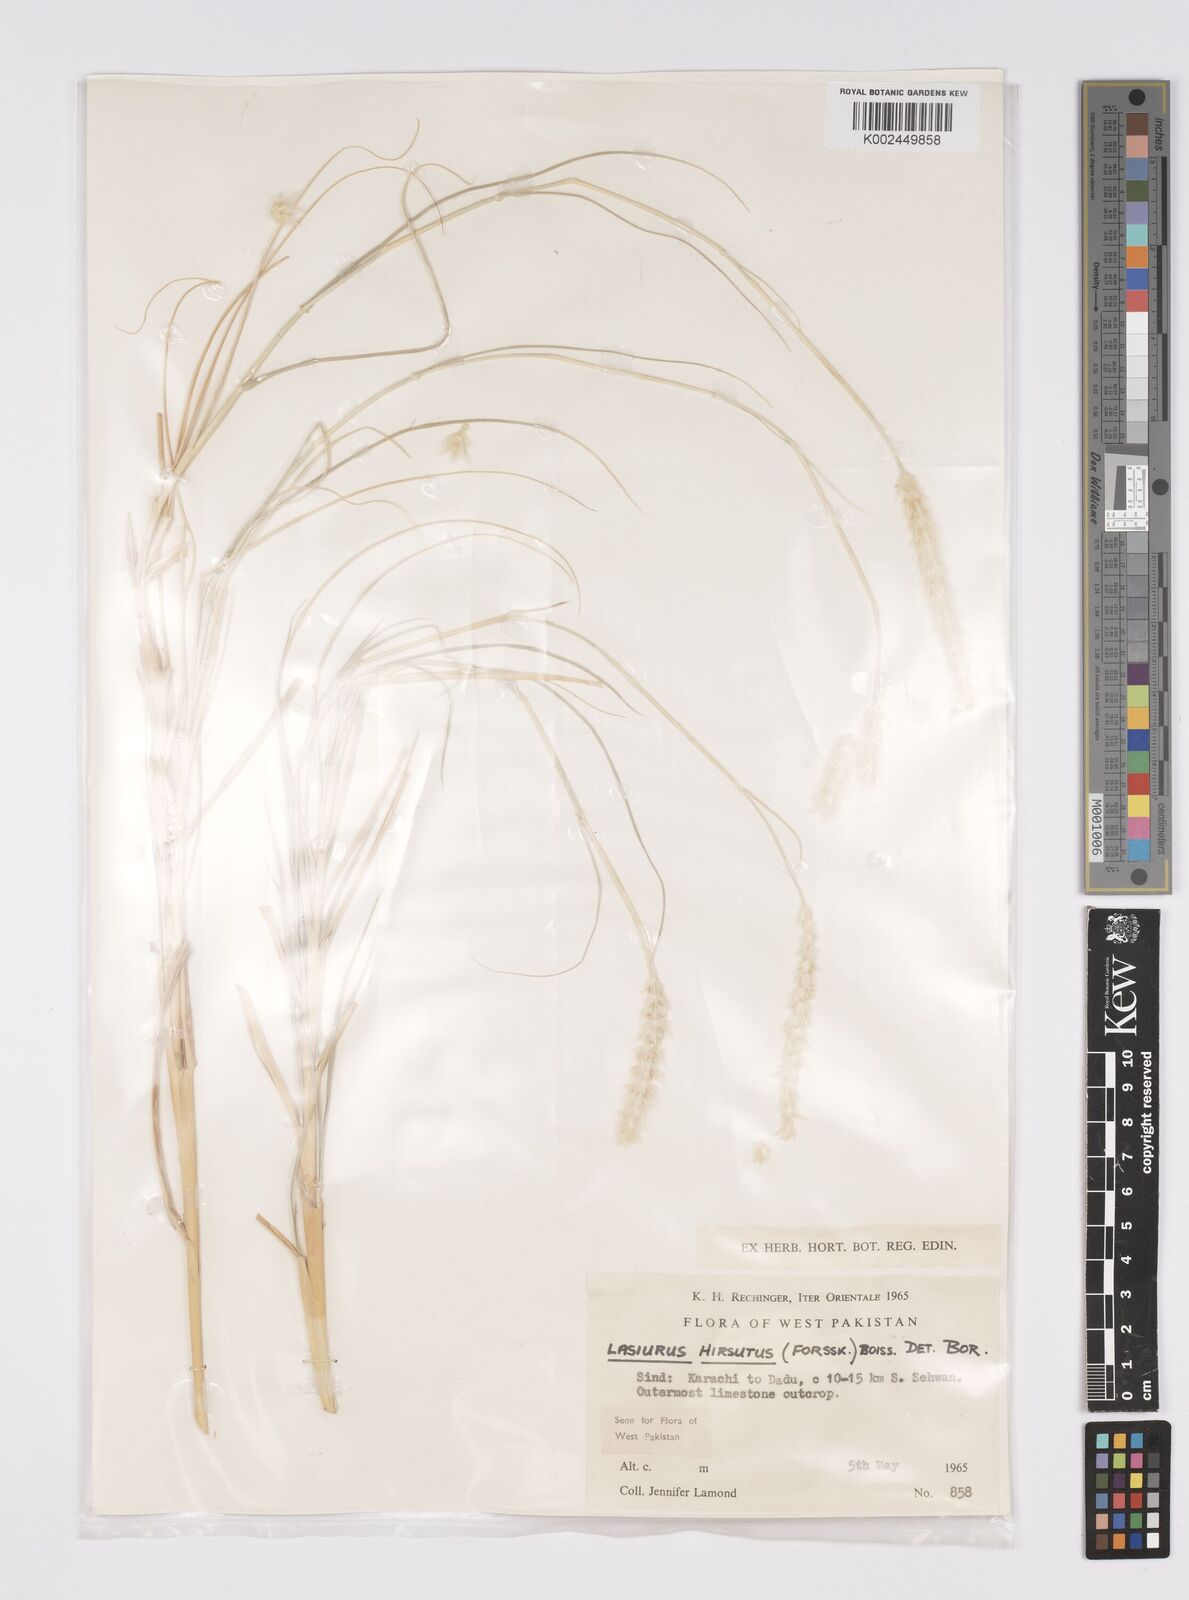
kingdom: Plantae
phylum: Tracheophyta
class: Liliopsida
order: Poales
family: Poaceae
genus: Lasiurus
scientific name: Lasiurus scindicus
